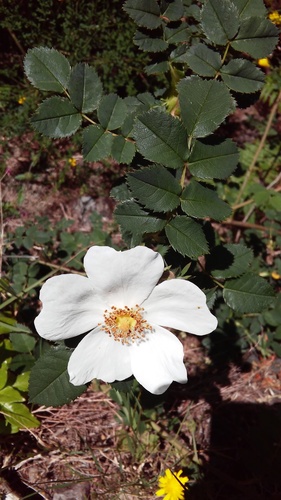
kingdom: Plantae
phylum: Tracheophyta
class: Magnoliopsida
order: Rosales
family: Rosaceae
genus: Rosa
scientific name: Rosa canina
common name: Dog rose
